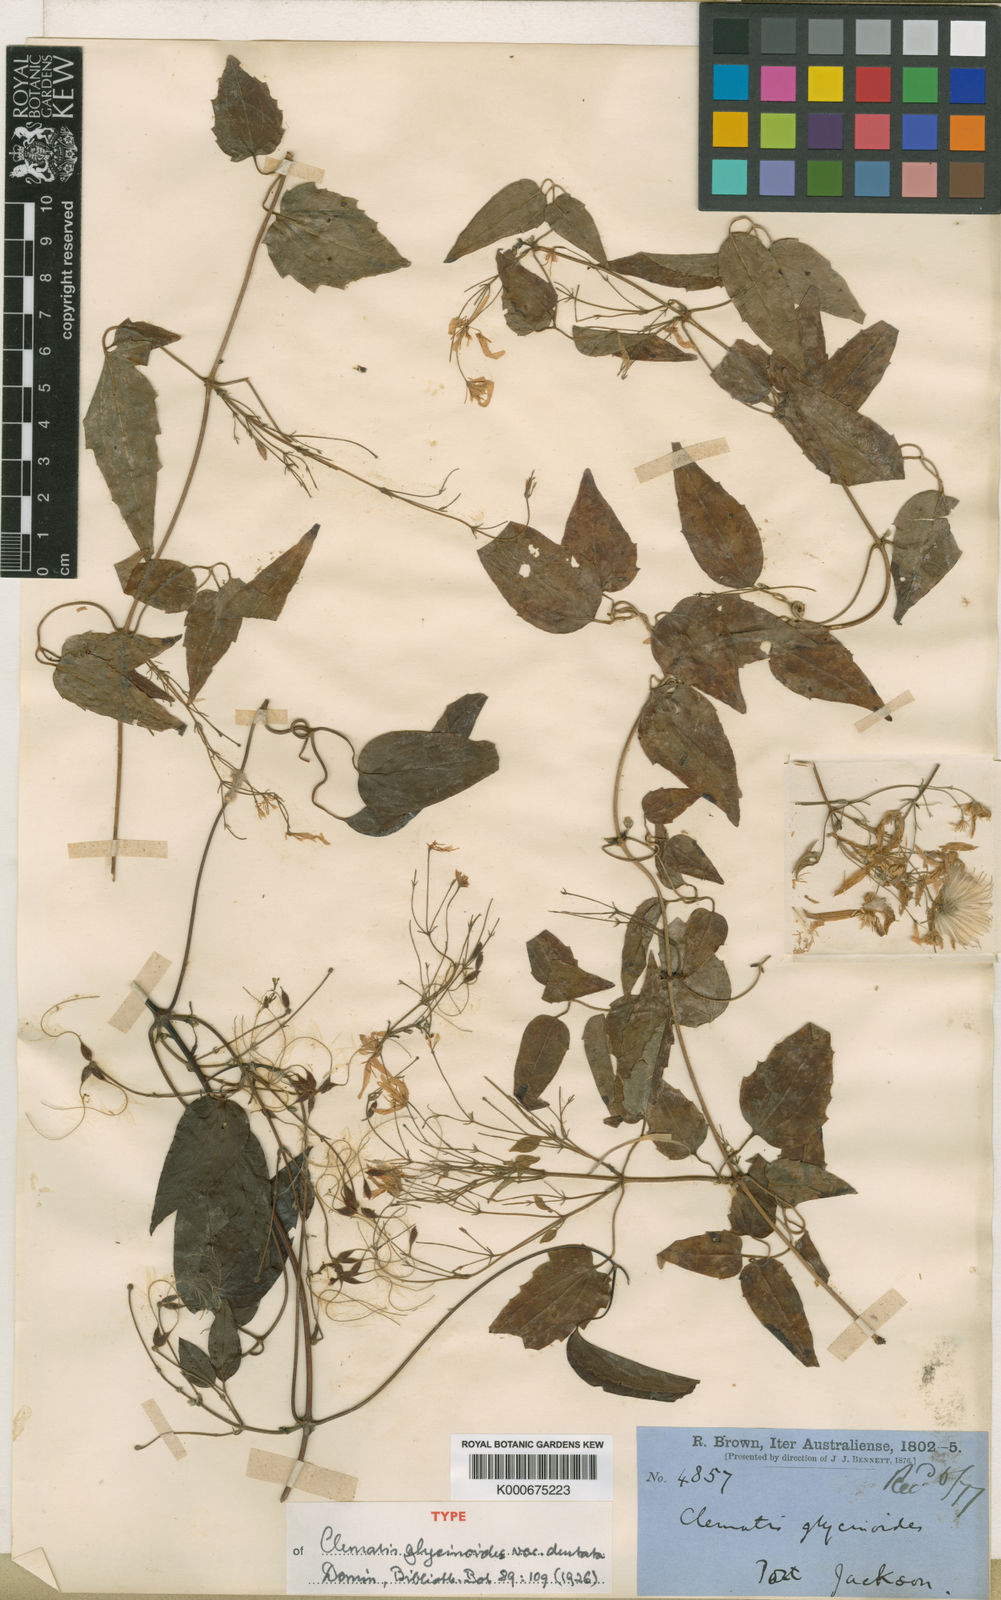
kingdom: Plantae
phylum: Tracheophyta
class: Magnoliopsida
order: Ranunculales
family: Ranunculaceae
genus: Clematis
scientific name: Clematis glycinoides
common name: Forest clematis
